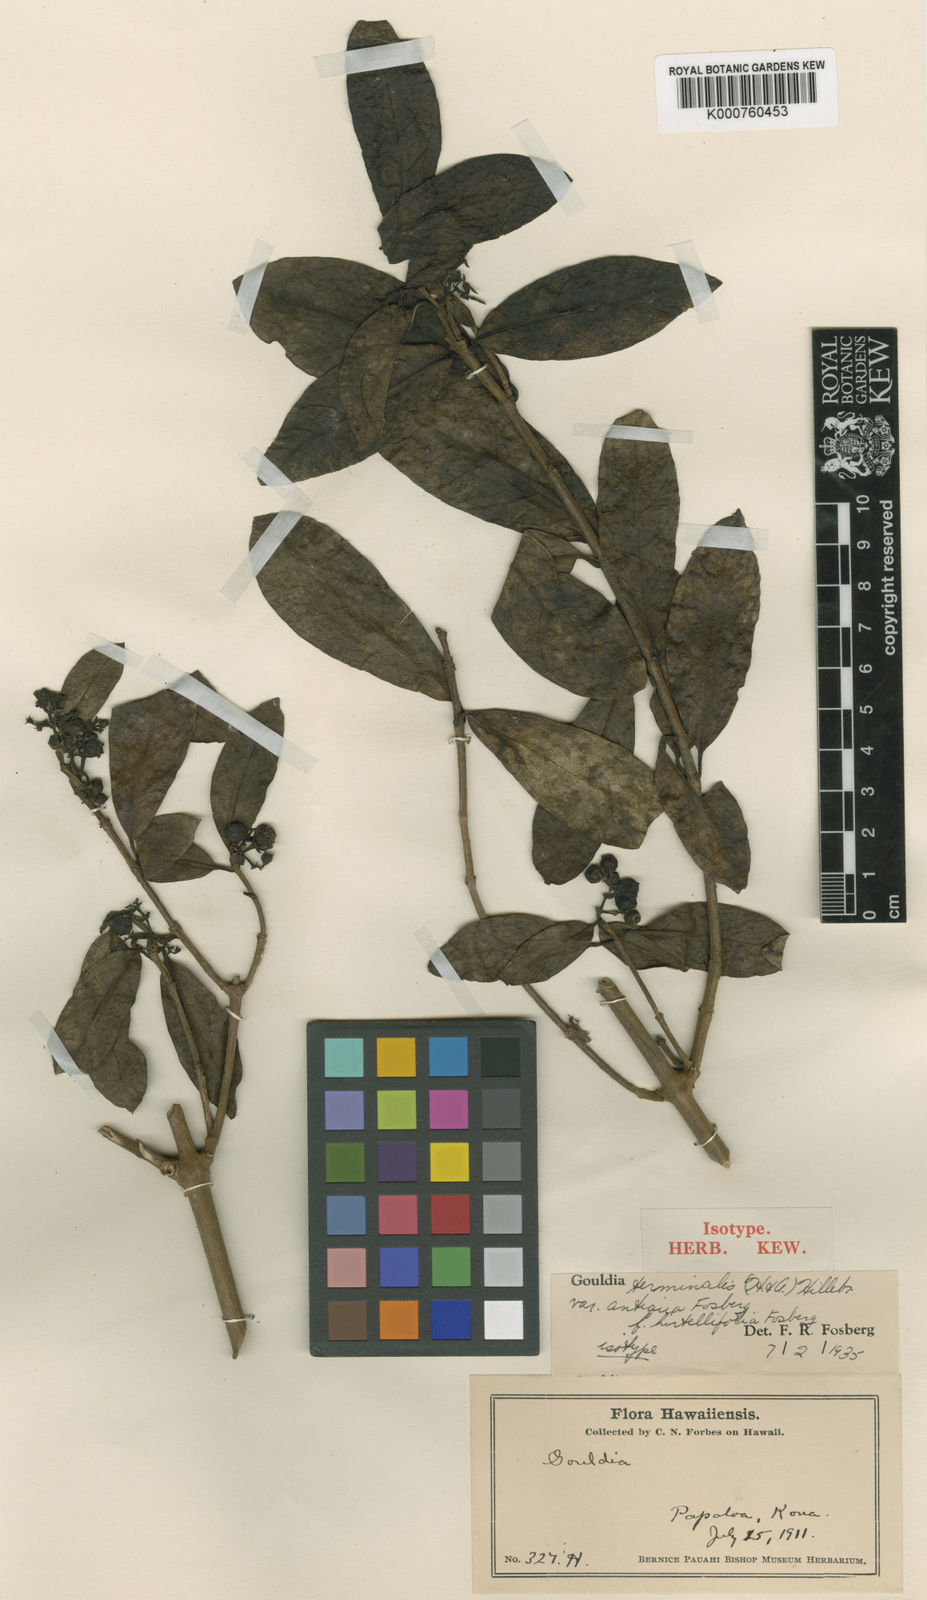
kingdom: Plantae
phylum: Tracheophyta
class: Magnoliopsida
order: Gentianales
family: Rubiaceae
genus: Kadua
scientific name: Kadua affinis
